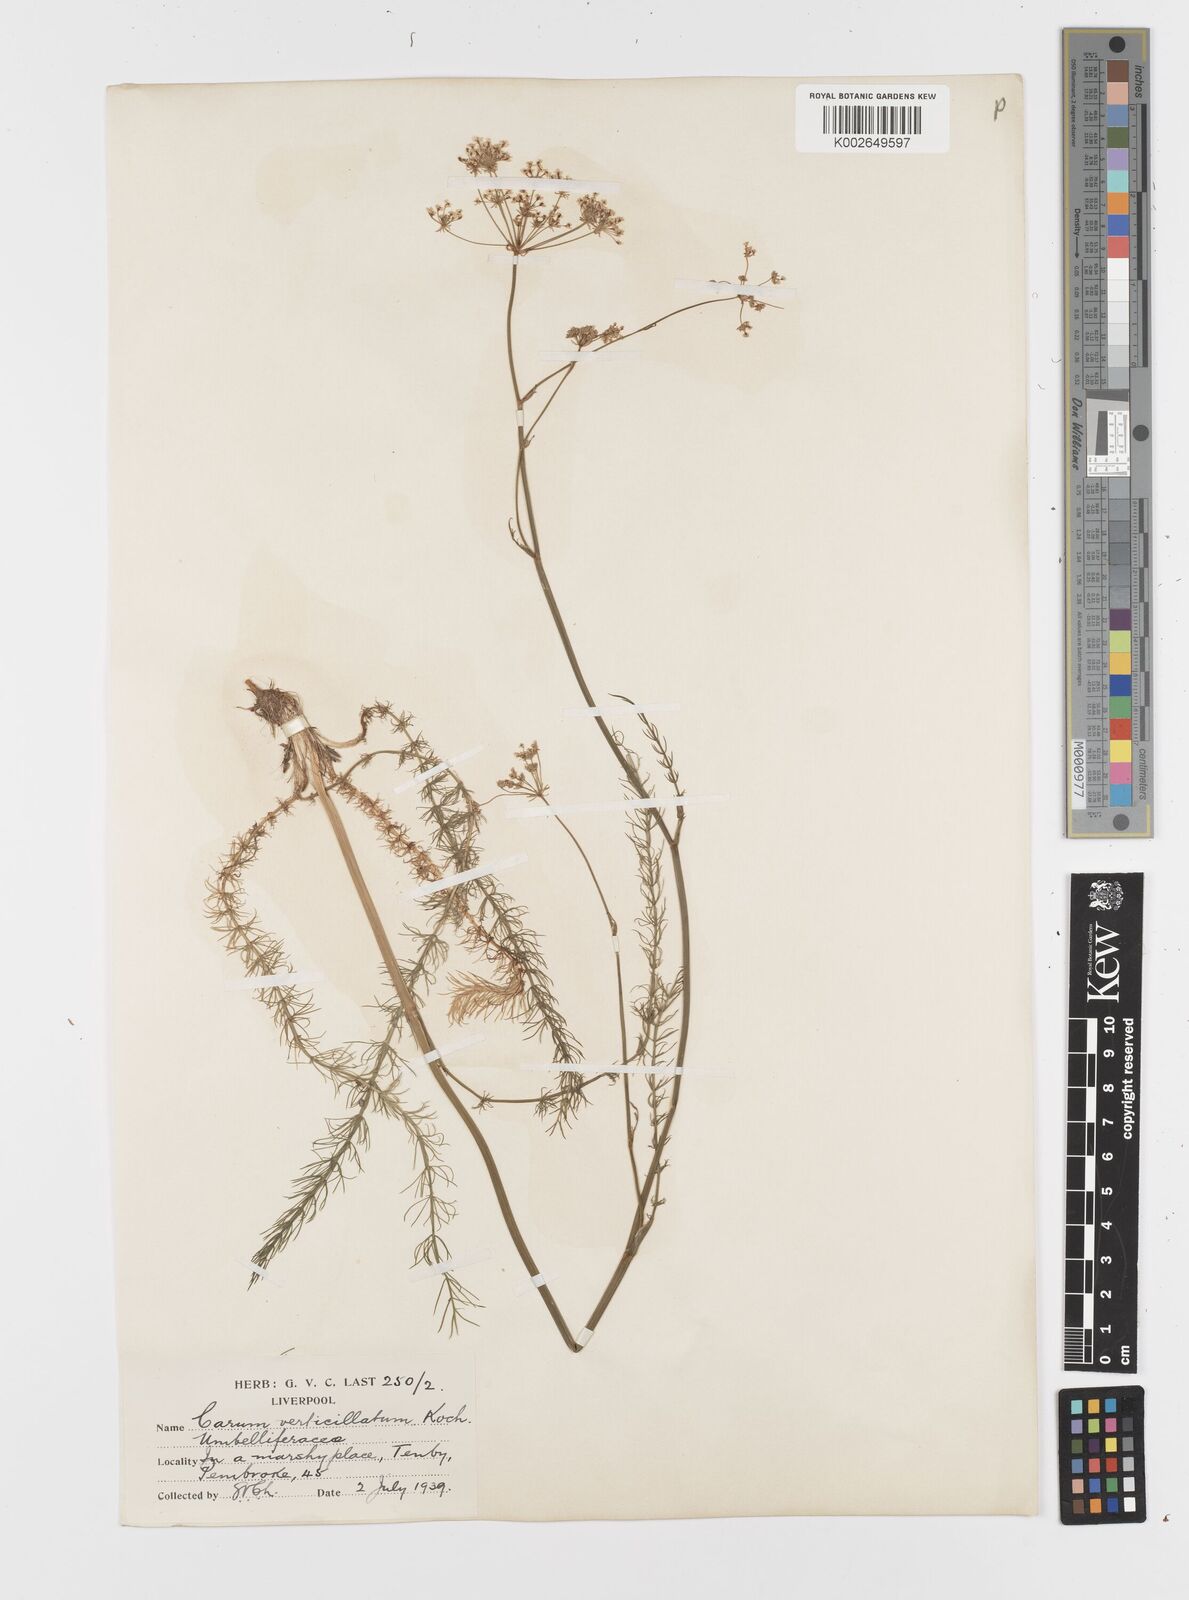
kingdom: Plantae
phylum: Tracheophyta
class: Magnoliopsida
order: Apiales
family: Apiaceae
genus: Trocdaris
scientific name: Trocdaris verticillatum
